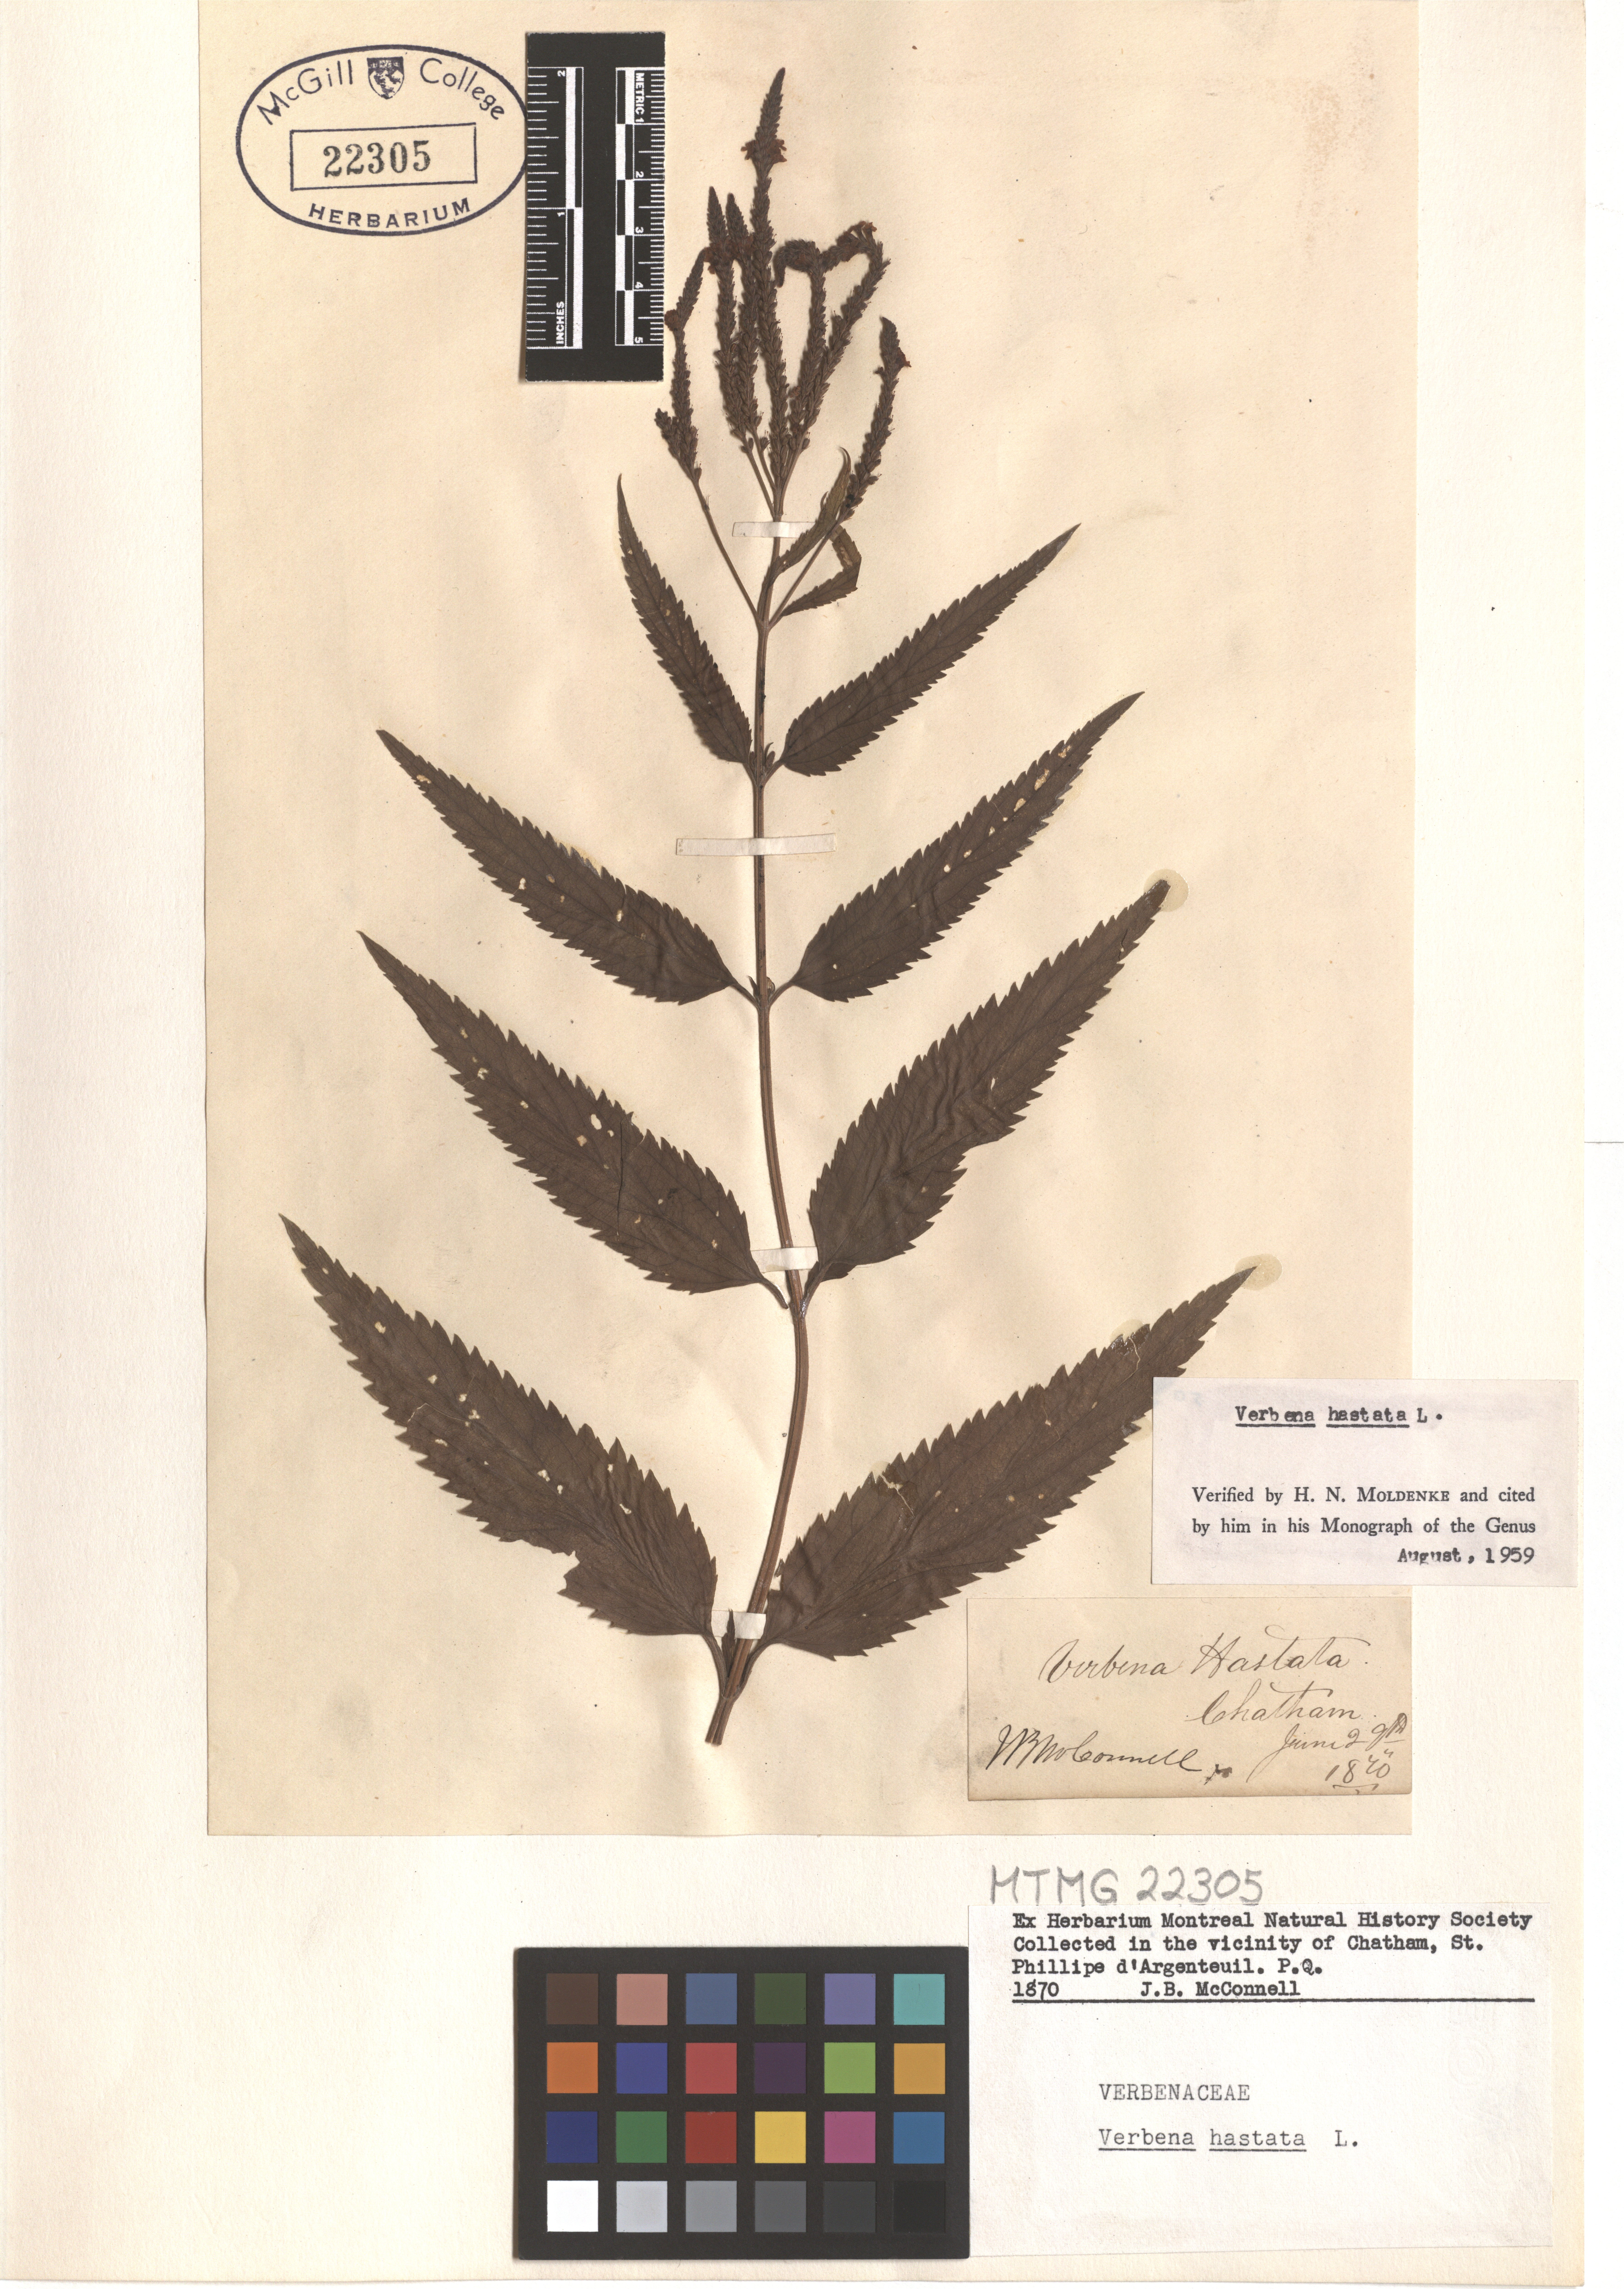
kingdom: Plantae
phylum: Tracheophyta
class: Magnoliopsida
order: Lamiales
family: Verbenaceae
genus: Verbena
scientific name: Verbena hastata
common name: American blue vervain
